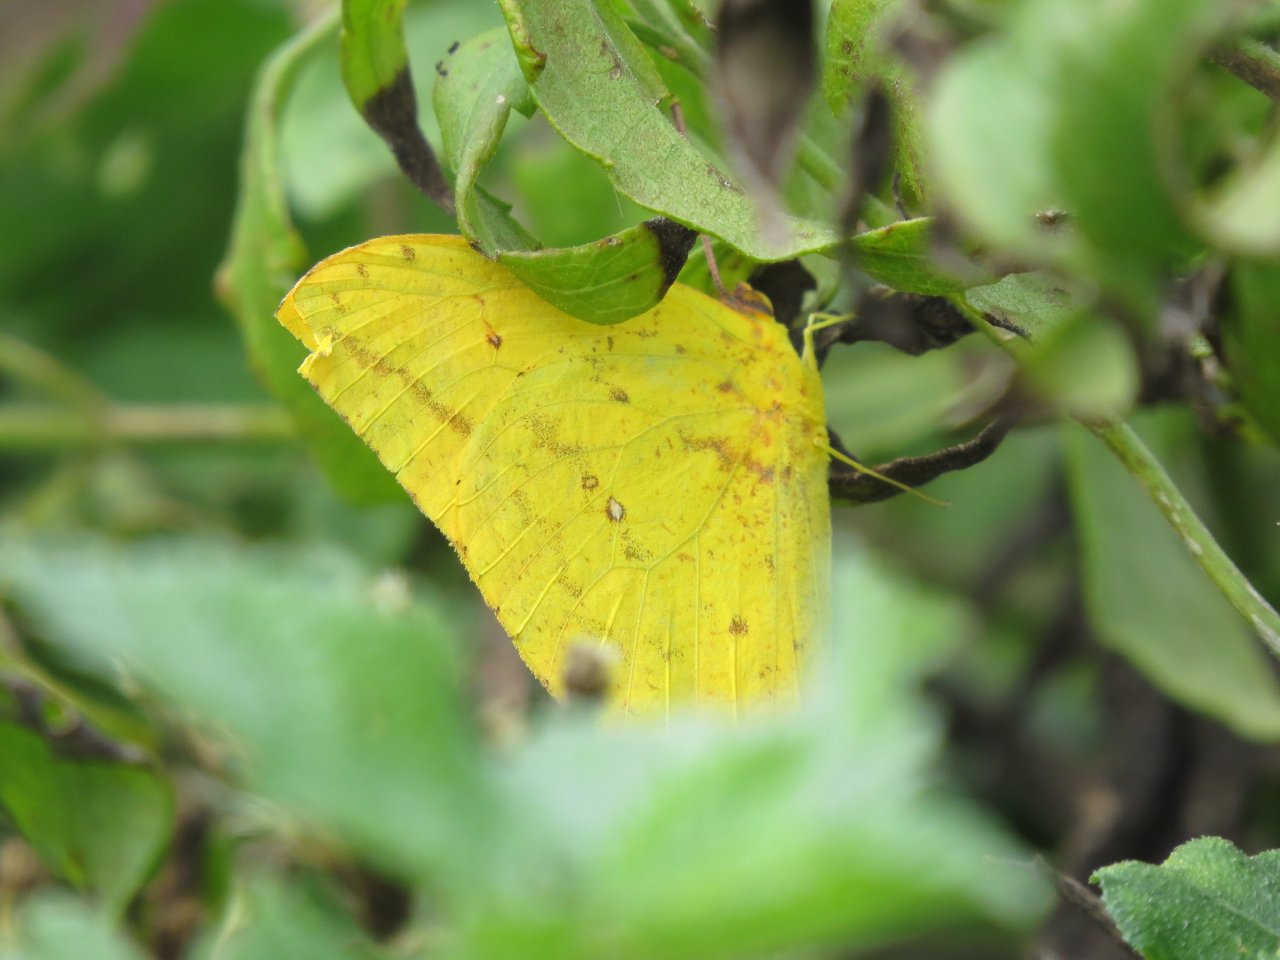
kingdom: Animalia
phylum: Arthropoda
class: Insecta
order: Lepidoptera
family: Pieridae
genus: Phoebis
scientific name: Phoebis agarithe
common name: Large Orange Sulphur
